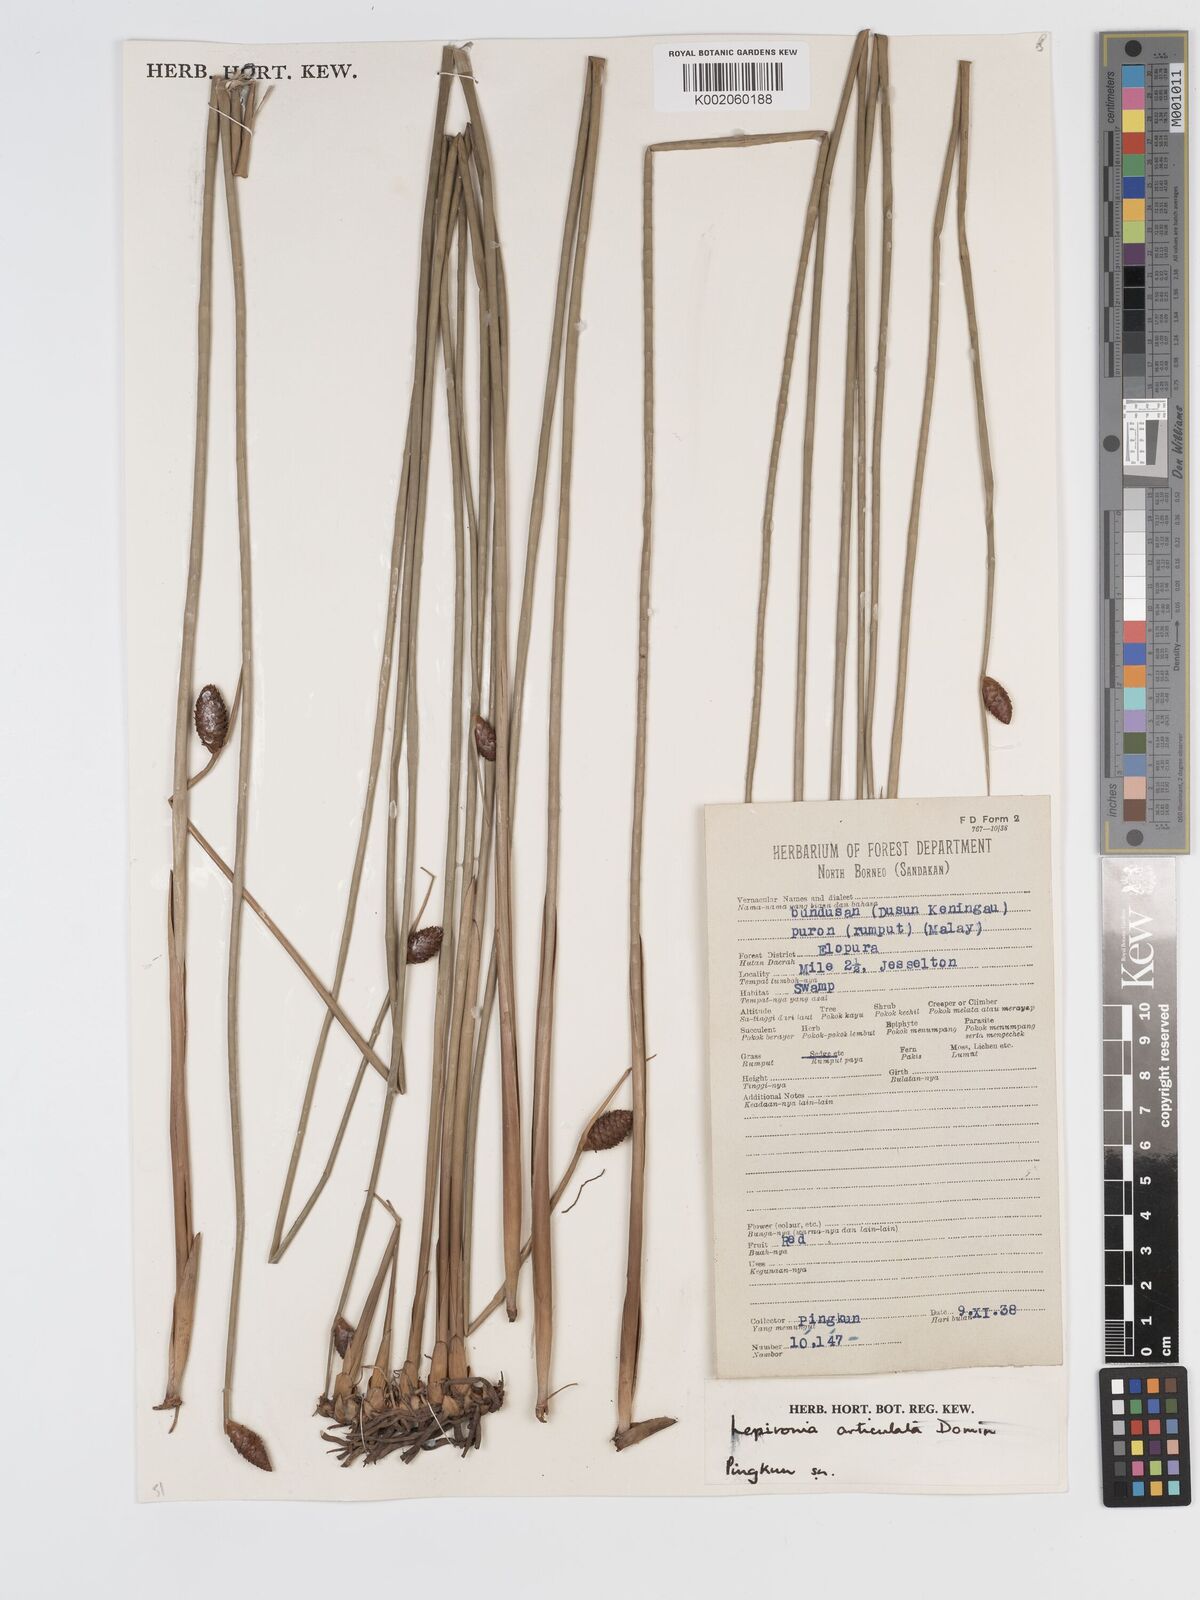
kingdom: Plantae
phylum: Tracheophyta
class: Liliopsida
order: Poales
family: Cyperaceae
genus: Lepironia
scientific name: Lepironia articulata
